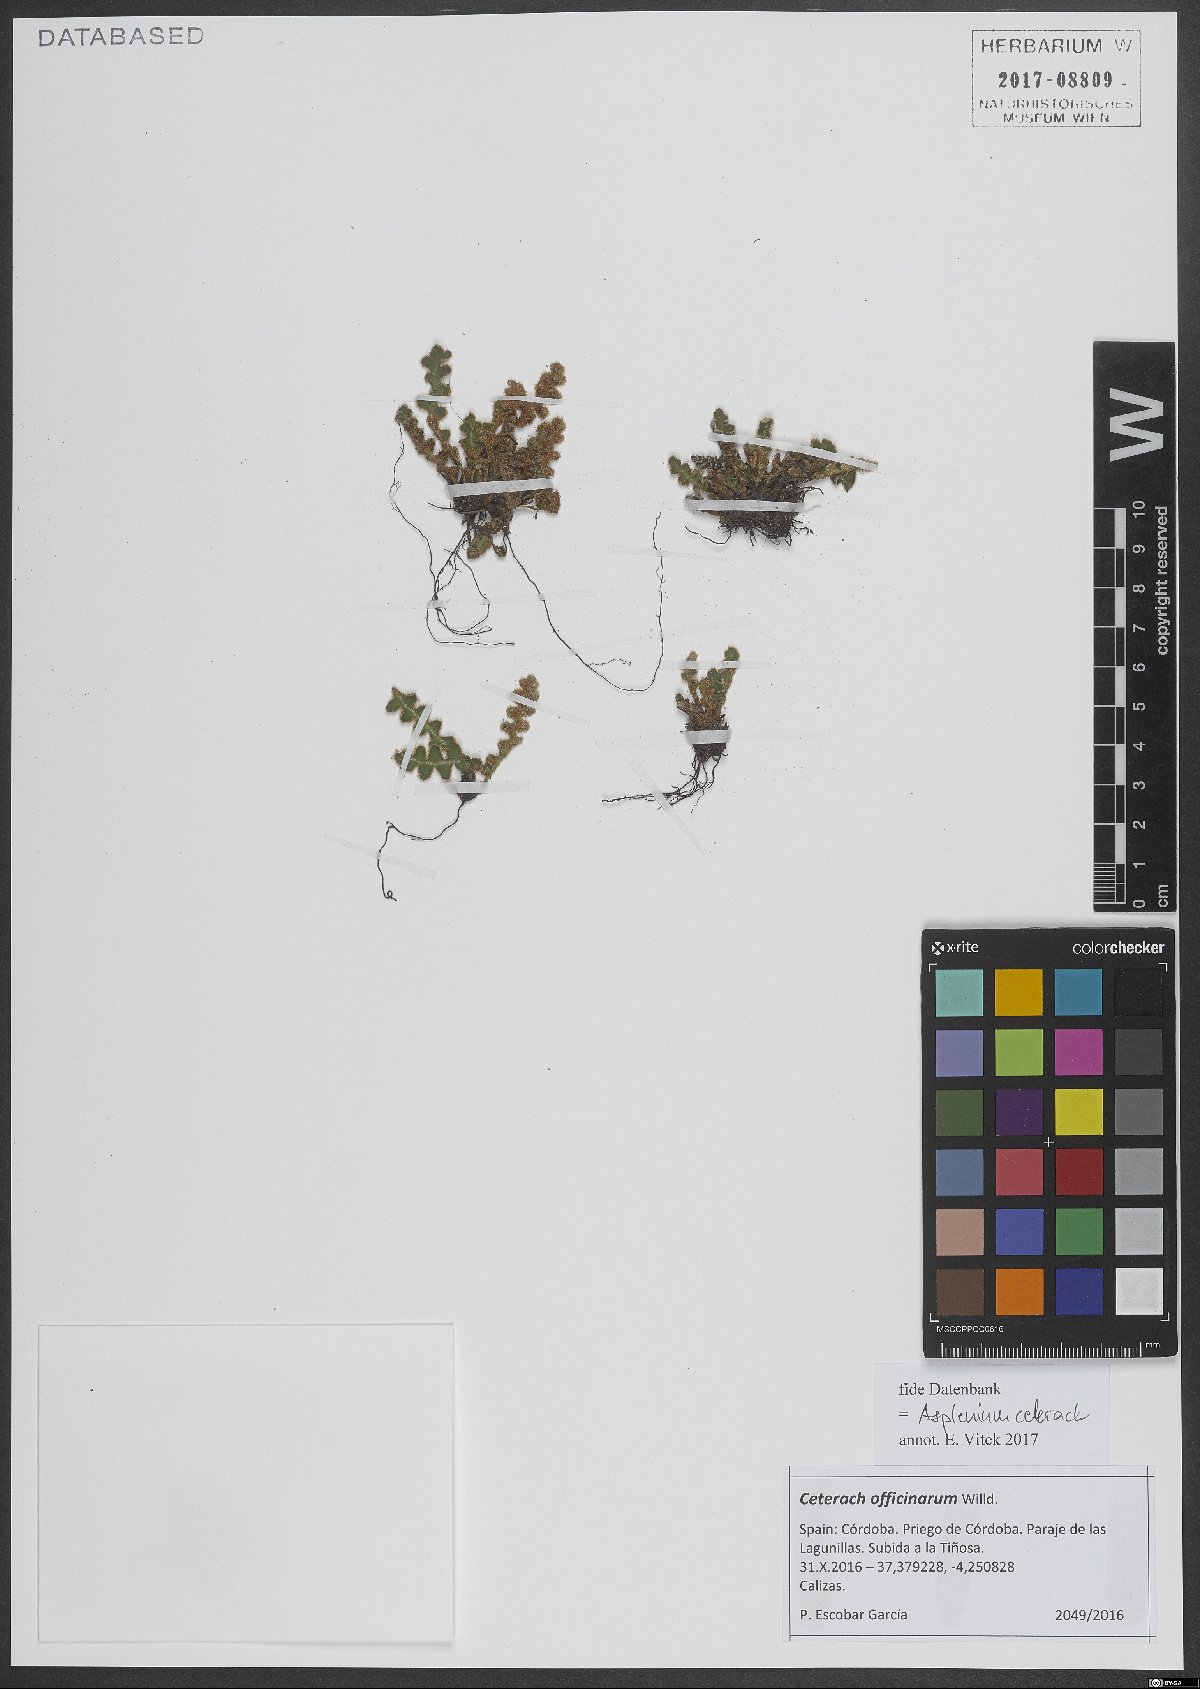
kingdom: Plantae
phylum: Tracheophyta
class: Polypodiopsida
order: Polypodiales
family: Aspleniaceae
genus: Asplenium
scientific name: Asplenium ceterach
